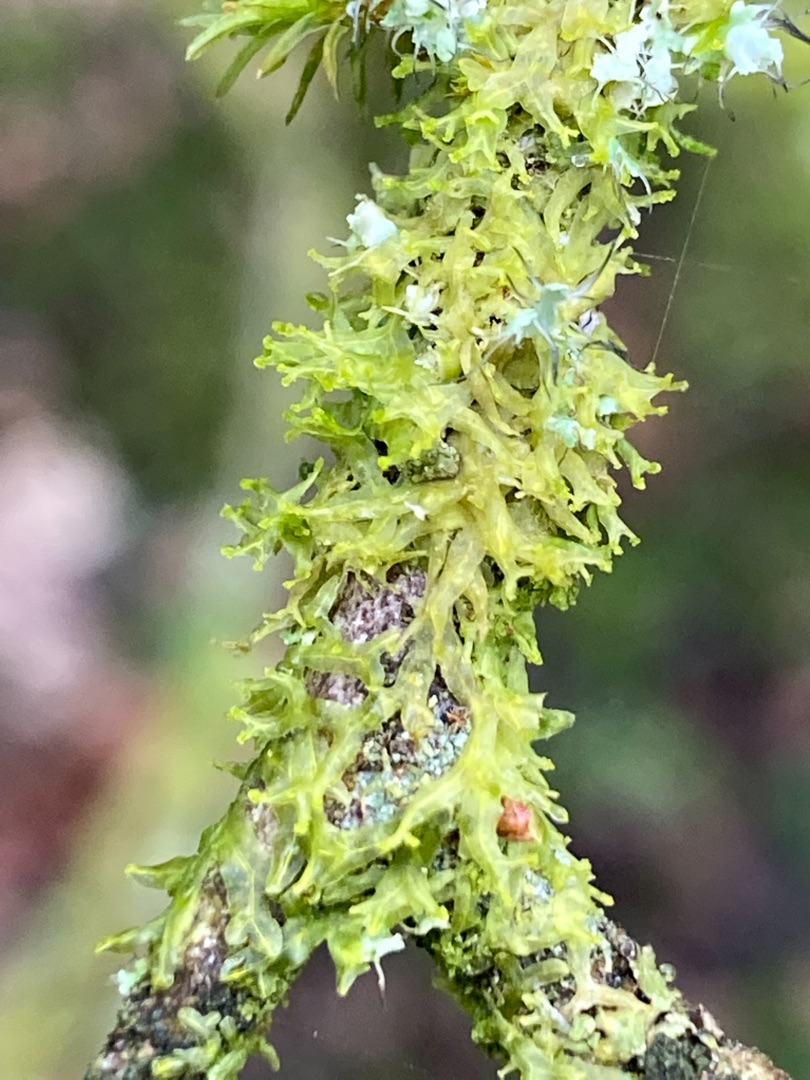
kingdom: Plantae
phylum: Marchantiophyta
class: Jungermanniopsida
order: Metzgeriales
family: Aneuraceae
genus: Riccardia
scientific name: Riccardia palmata
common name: Blågrøn gaffelløv
